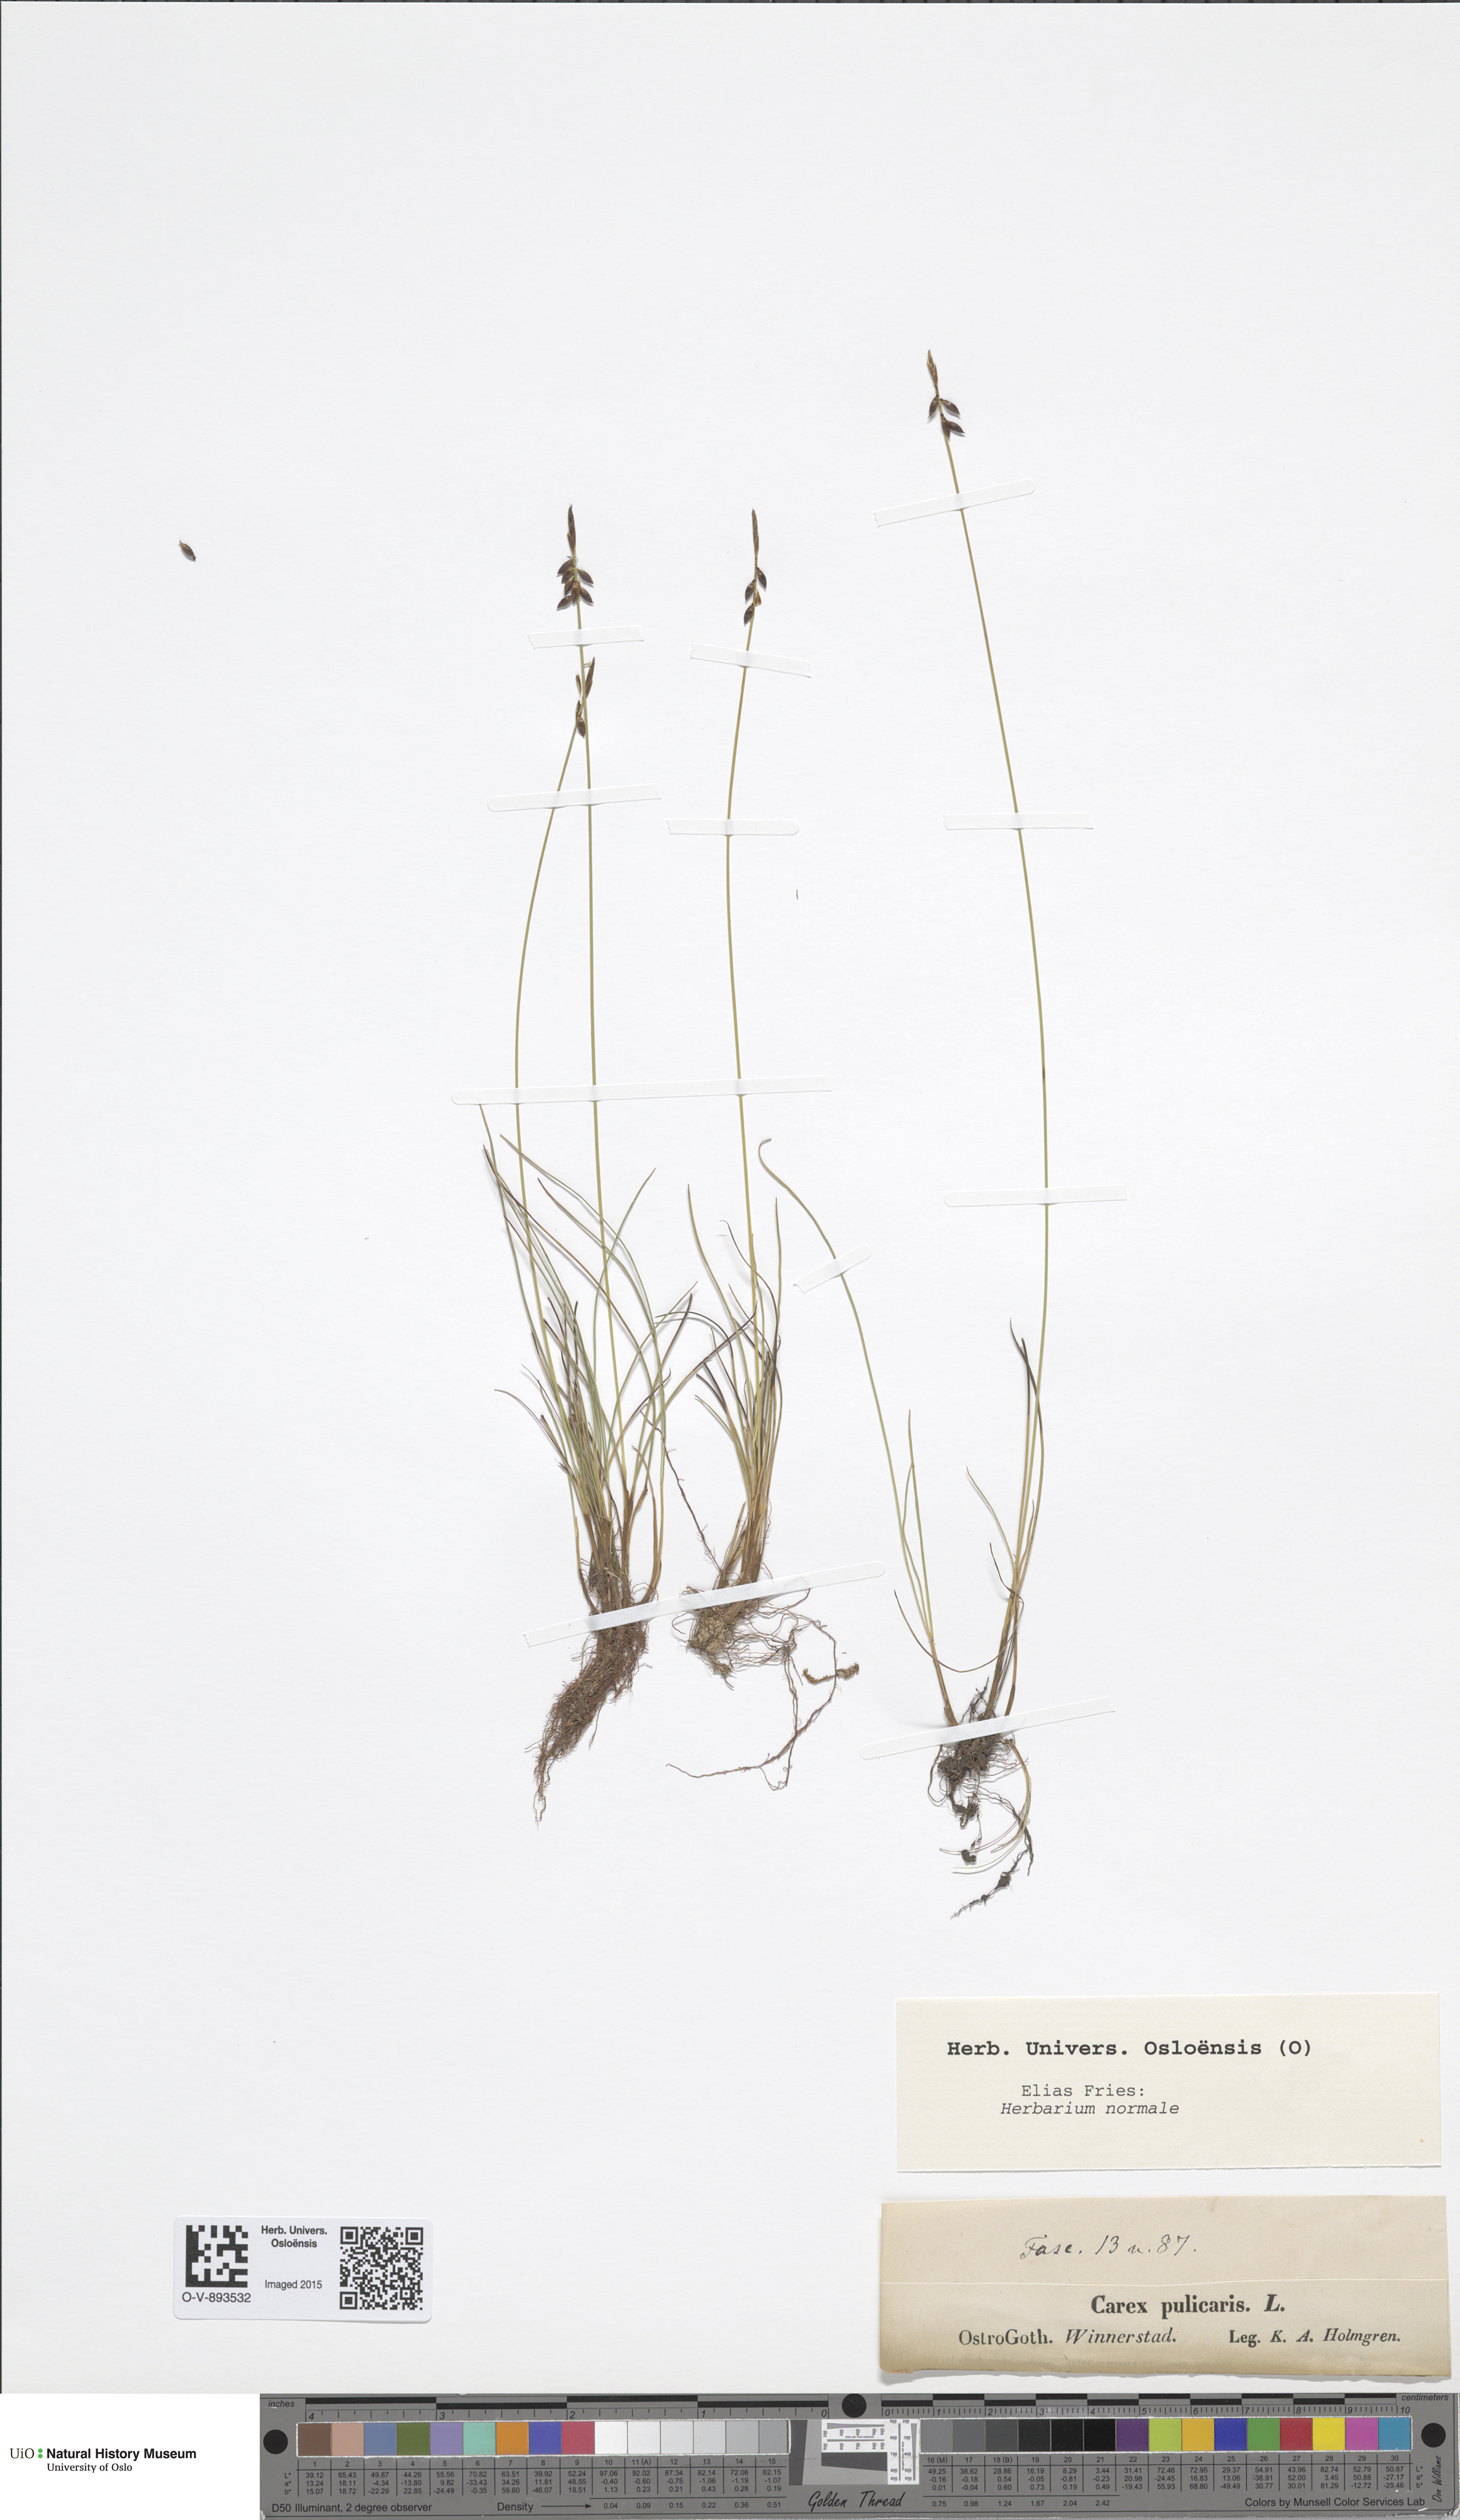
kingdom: Plantae
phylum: Tracheophyta
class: Liliopsida
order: Poales
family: Cyperaceae
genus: Carex
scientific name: Carex pulicaris
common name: Flea sedge
